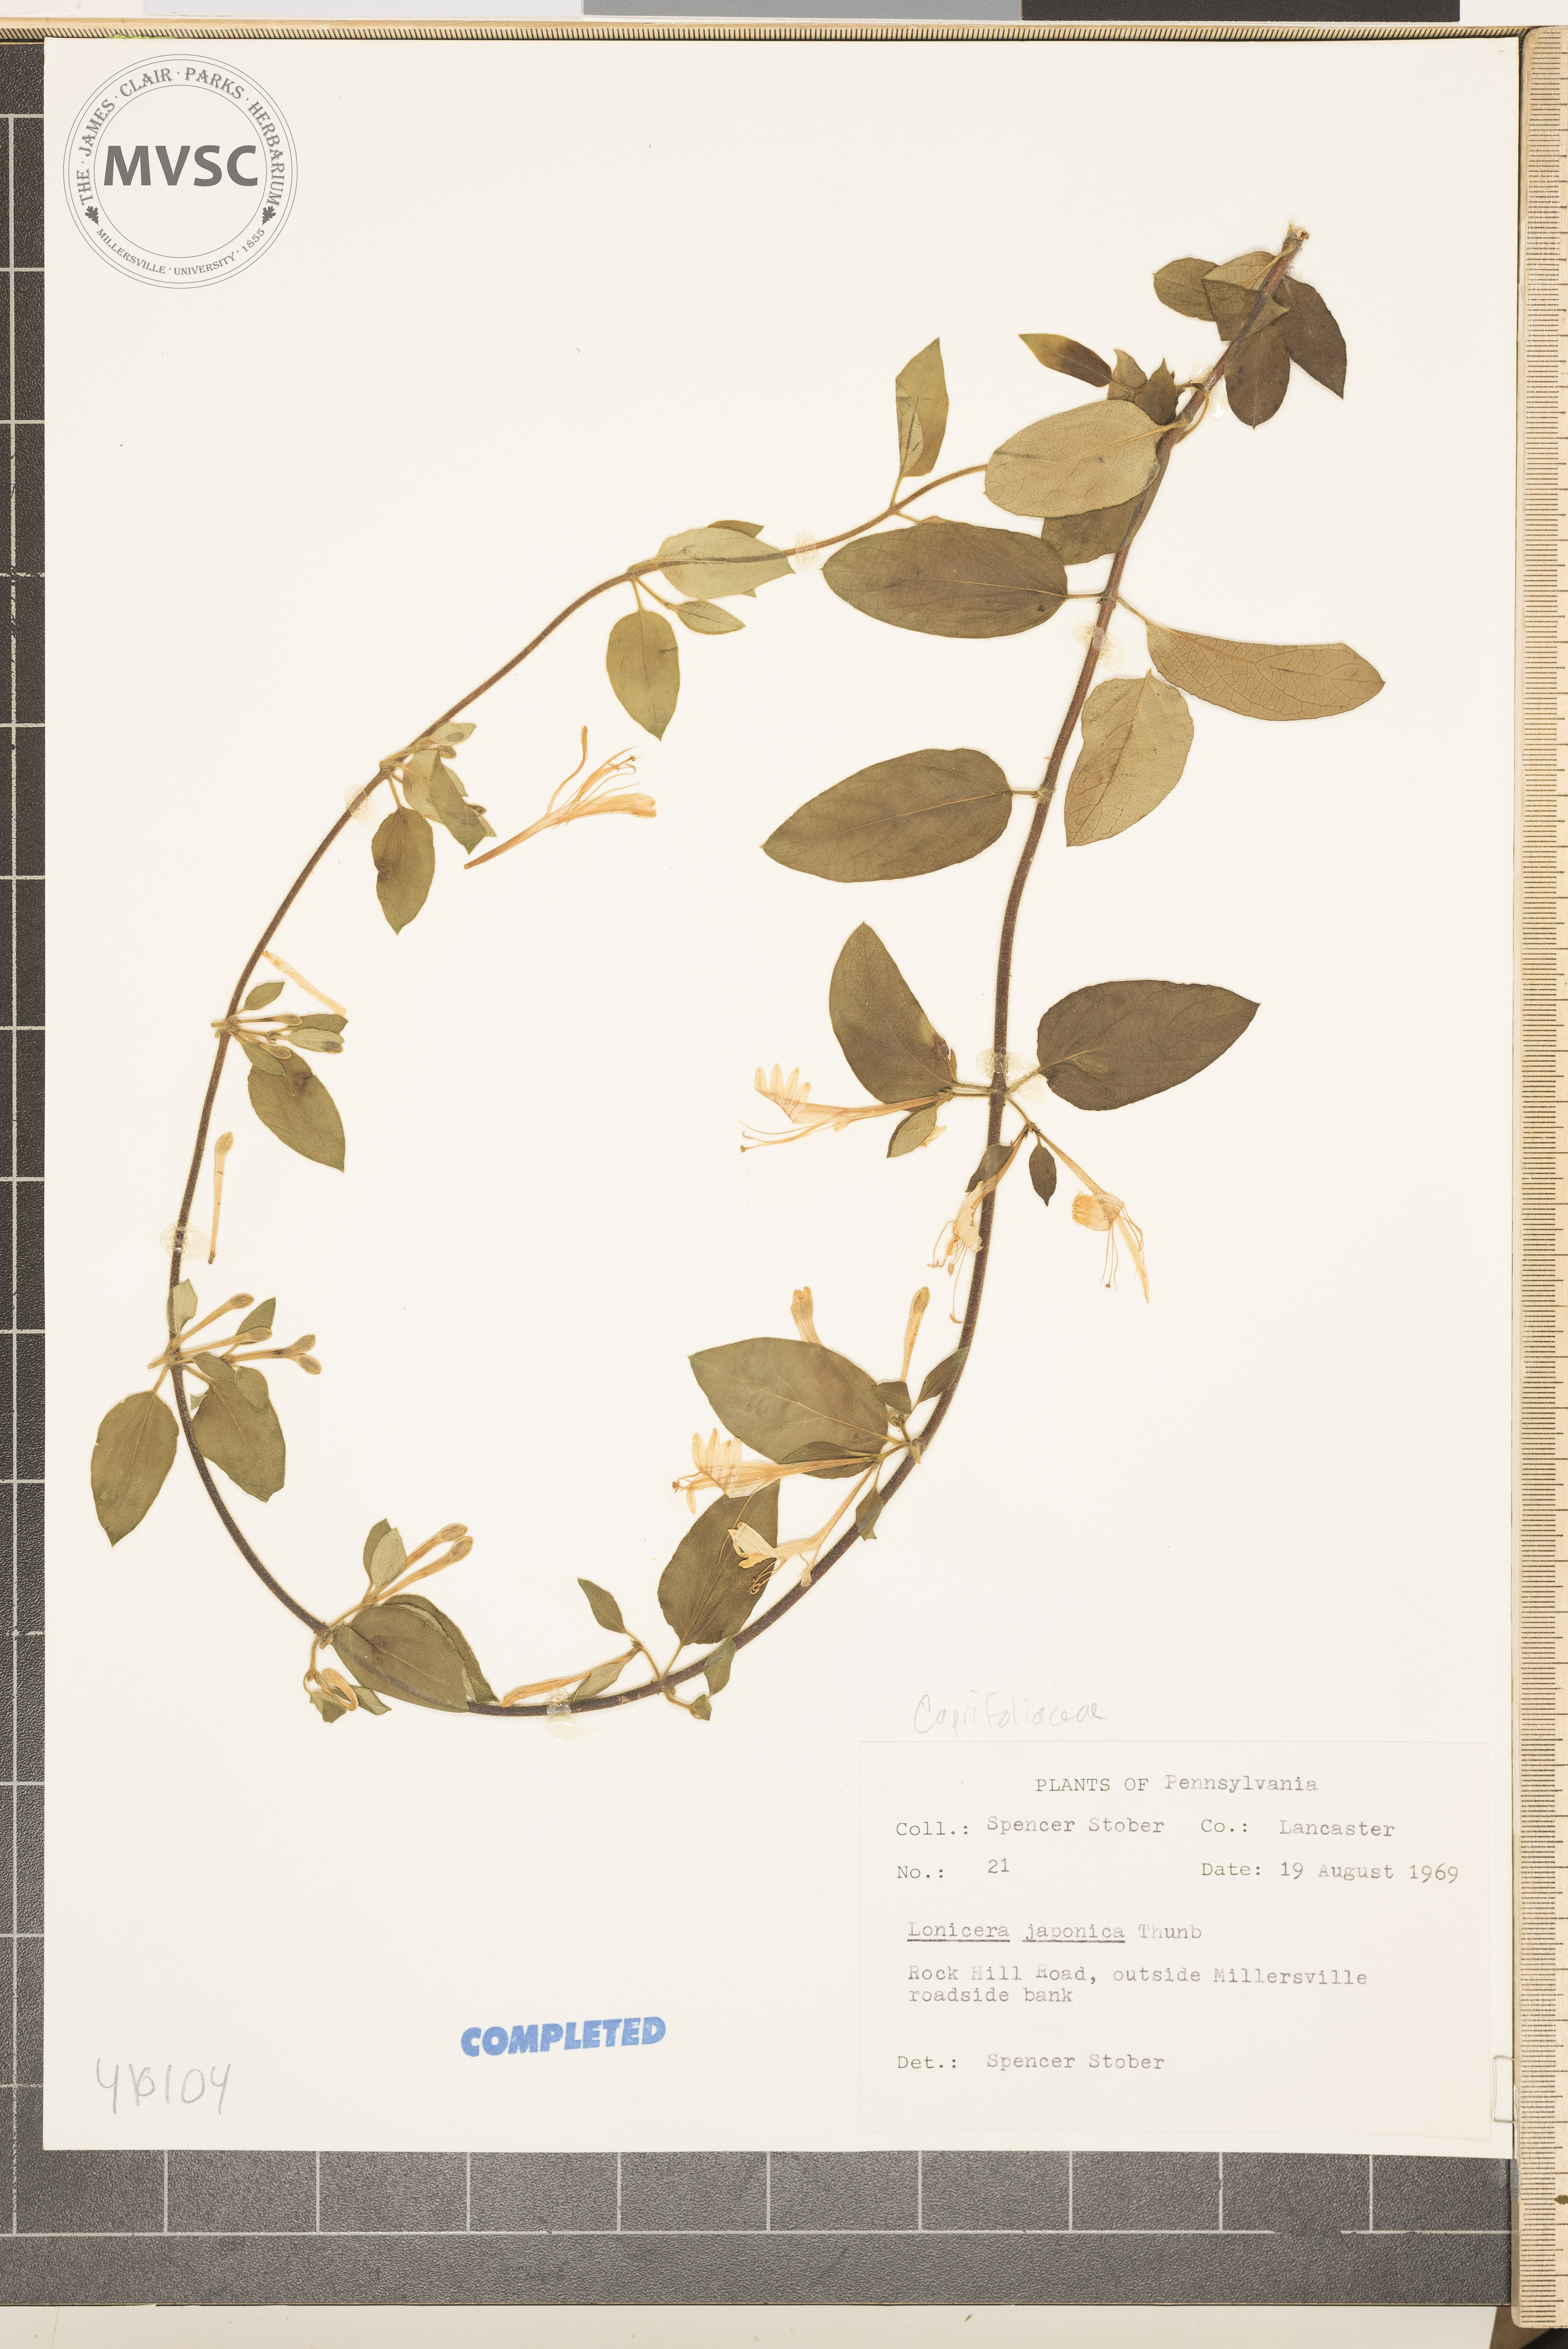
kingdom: Plantae
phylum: Tracheophyta
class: Magnoliopsida
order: Dipsacales
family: Caprifoliaceae
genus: Lonicera
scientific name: Lonicera japonica
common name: Japanese honeysuckle
